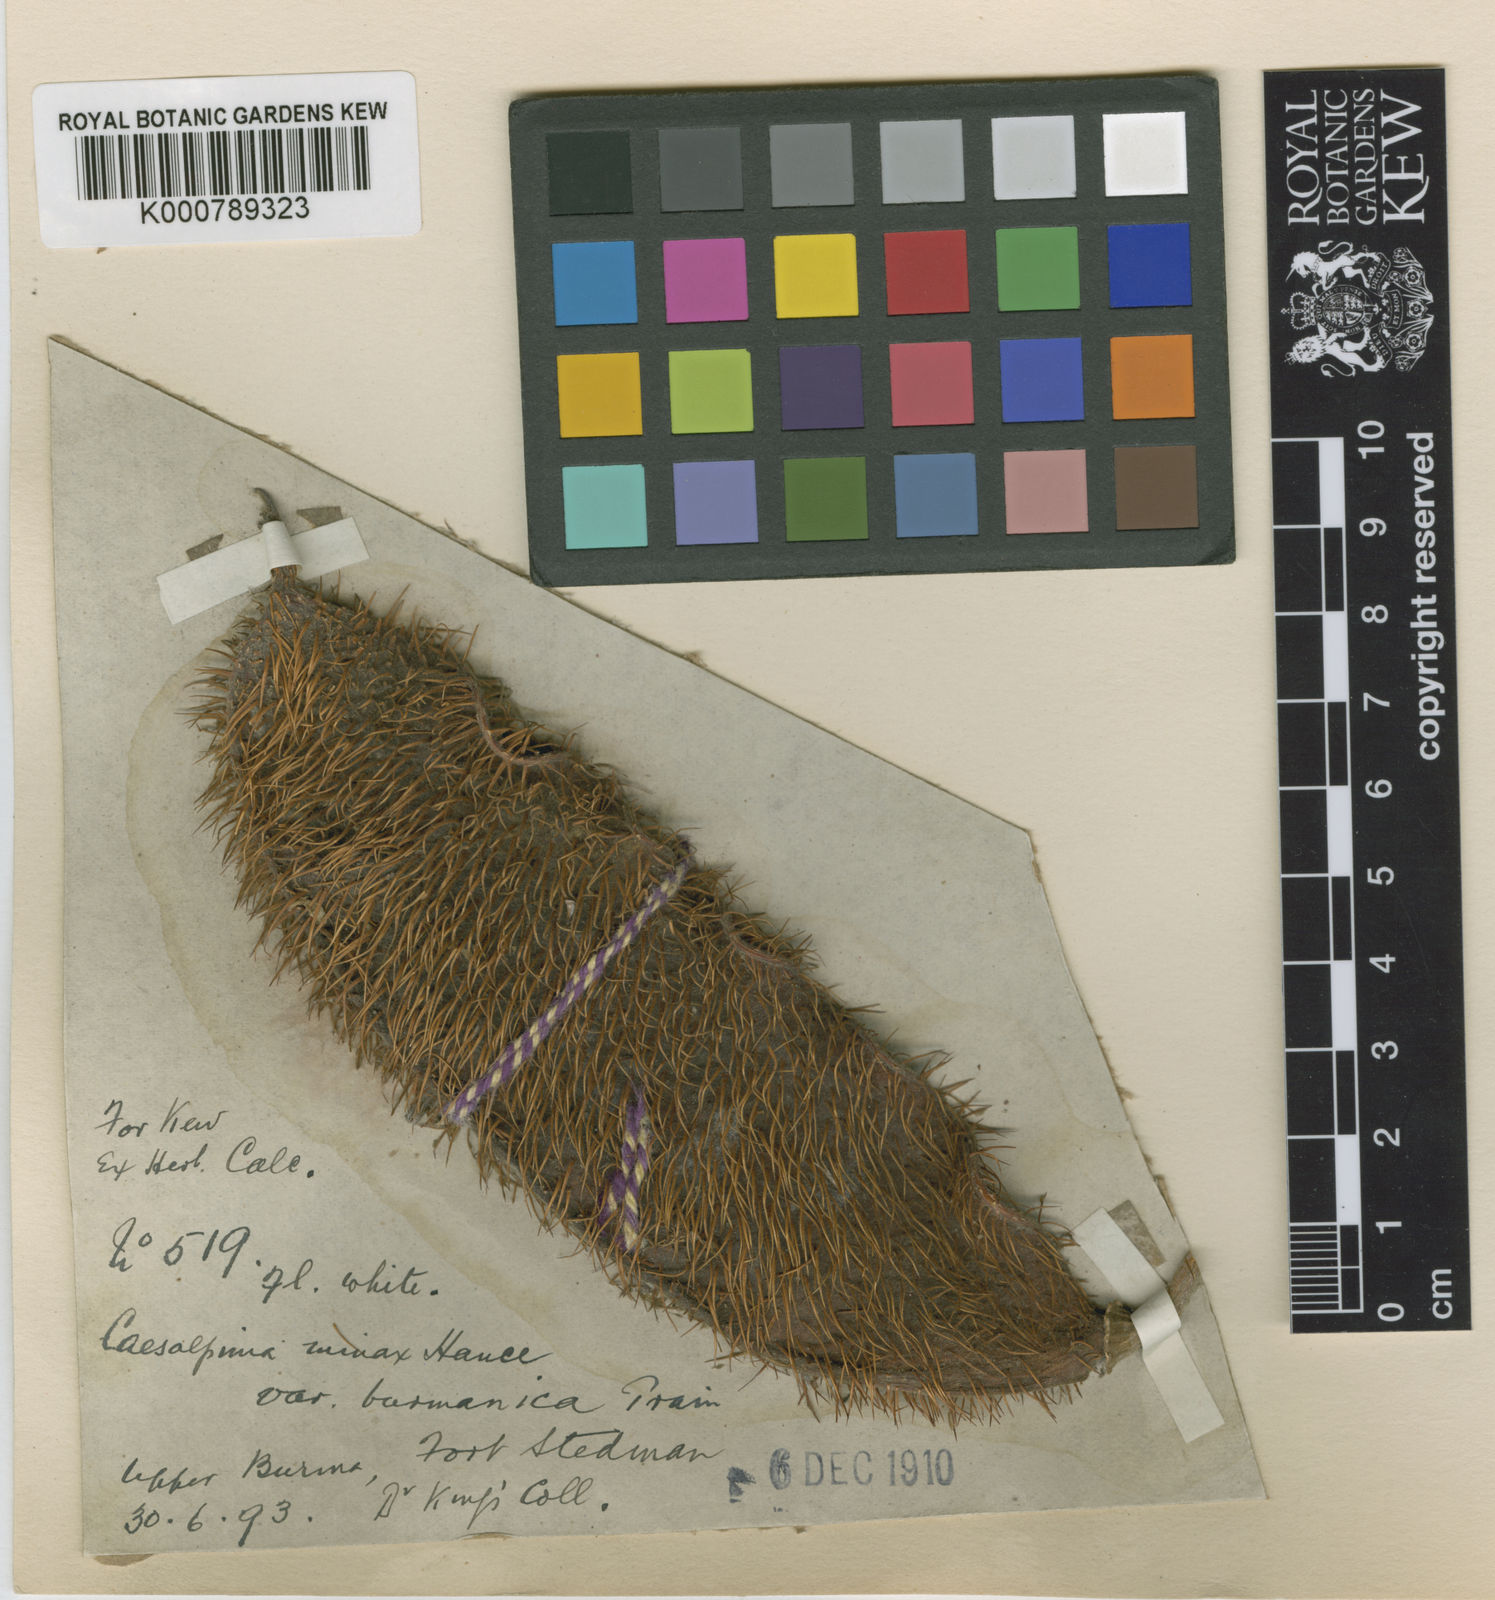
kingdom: Plantae
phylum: Tracheophyta
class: Magnoliopsida
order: Fabales
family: Fabaceae
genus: Guilandina
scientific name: Guilandina
